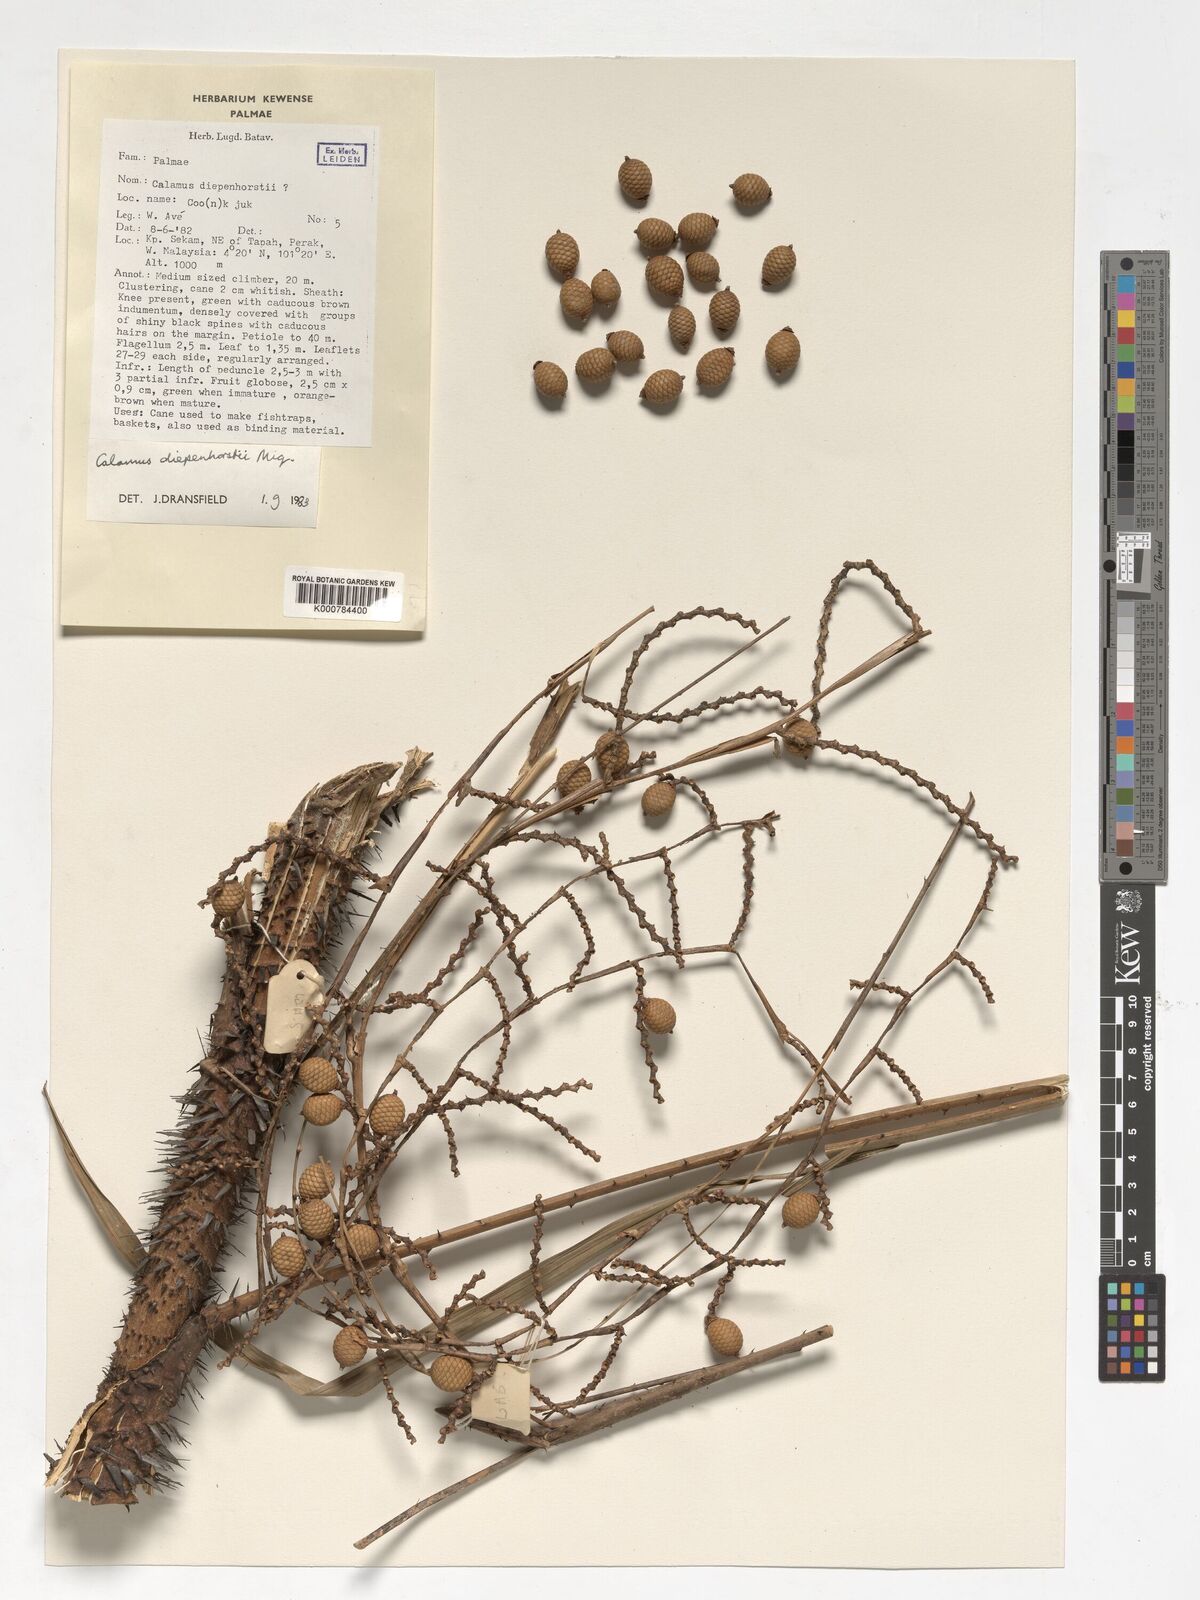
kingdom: Plantae
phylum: Tracheophyta
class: Liliopsida
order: Arecales
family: Arecaceae
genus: Calamus
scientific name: Calamus diepenhorstii
